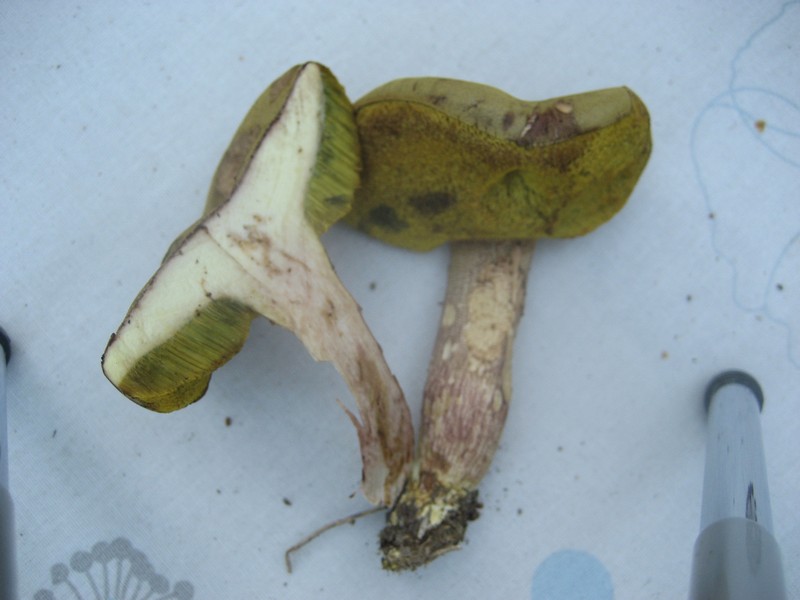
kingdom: Fungi
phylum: Basidiomycota
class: Agaricomycetes
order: Boletales
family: Boletaceae
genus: Xerocomus
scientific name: Xerocomus ferrugineus
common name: vaskeskinds-rørhat
